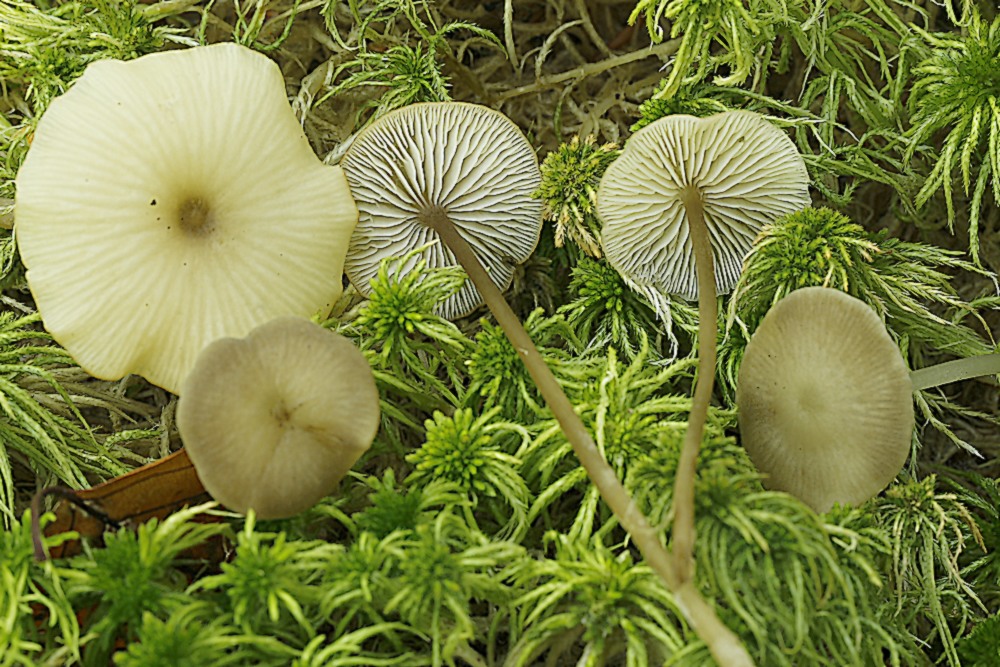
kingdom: Fungi
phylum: Basidiomycota
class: Agaricomycetes
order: Agaricales
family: Lyophyllaceae
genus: Sphagnurus
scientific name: Sphagnurus paluster
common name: tørvemos-gråblad
